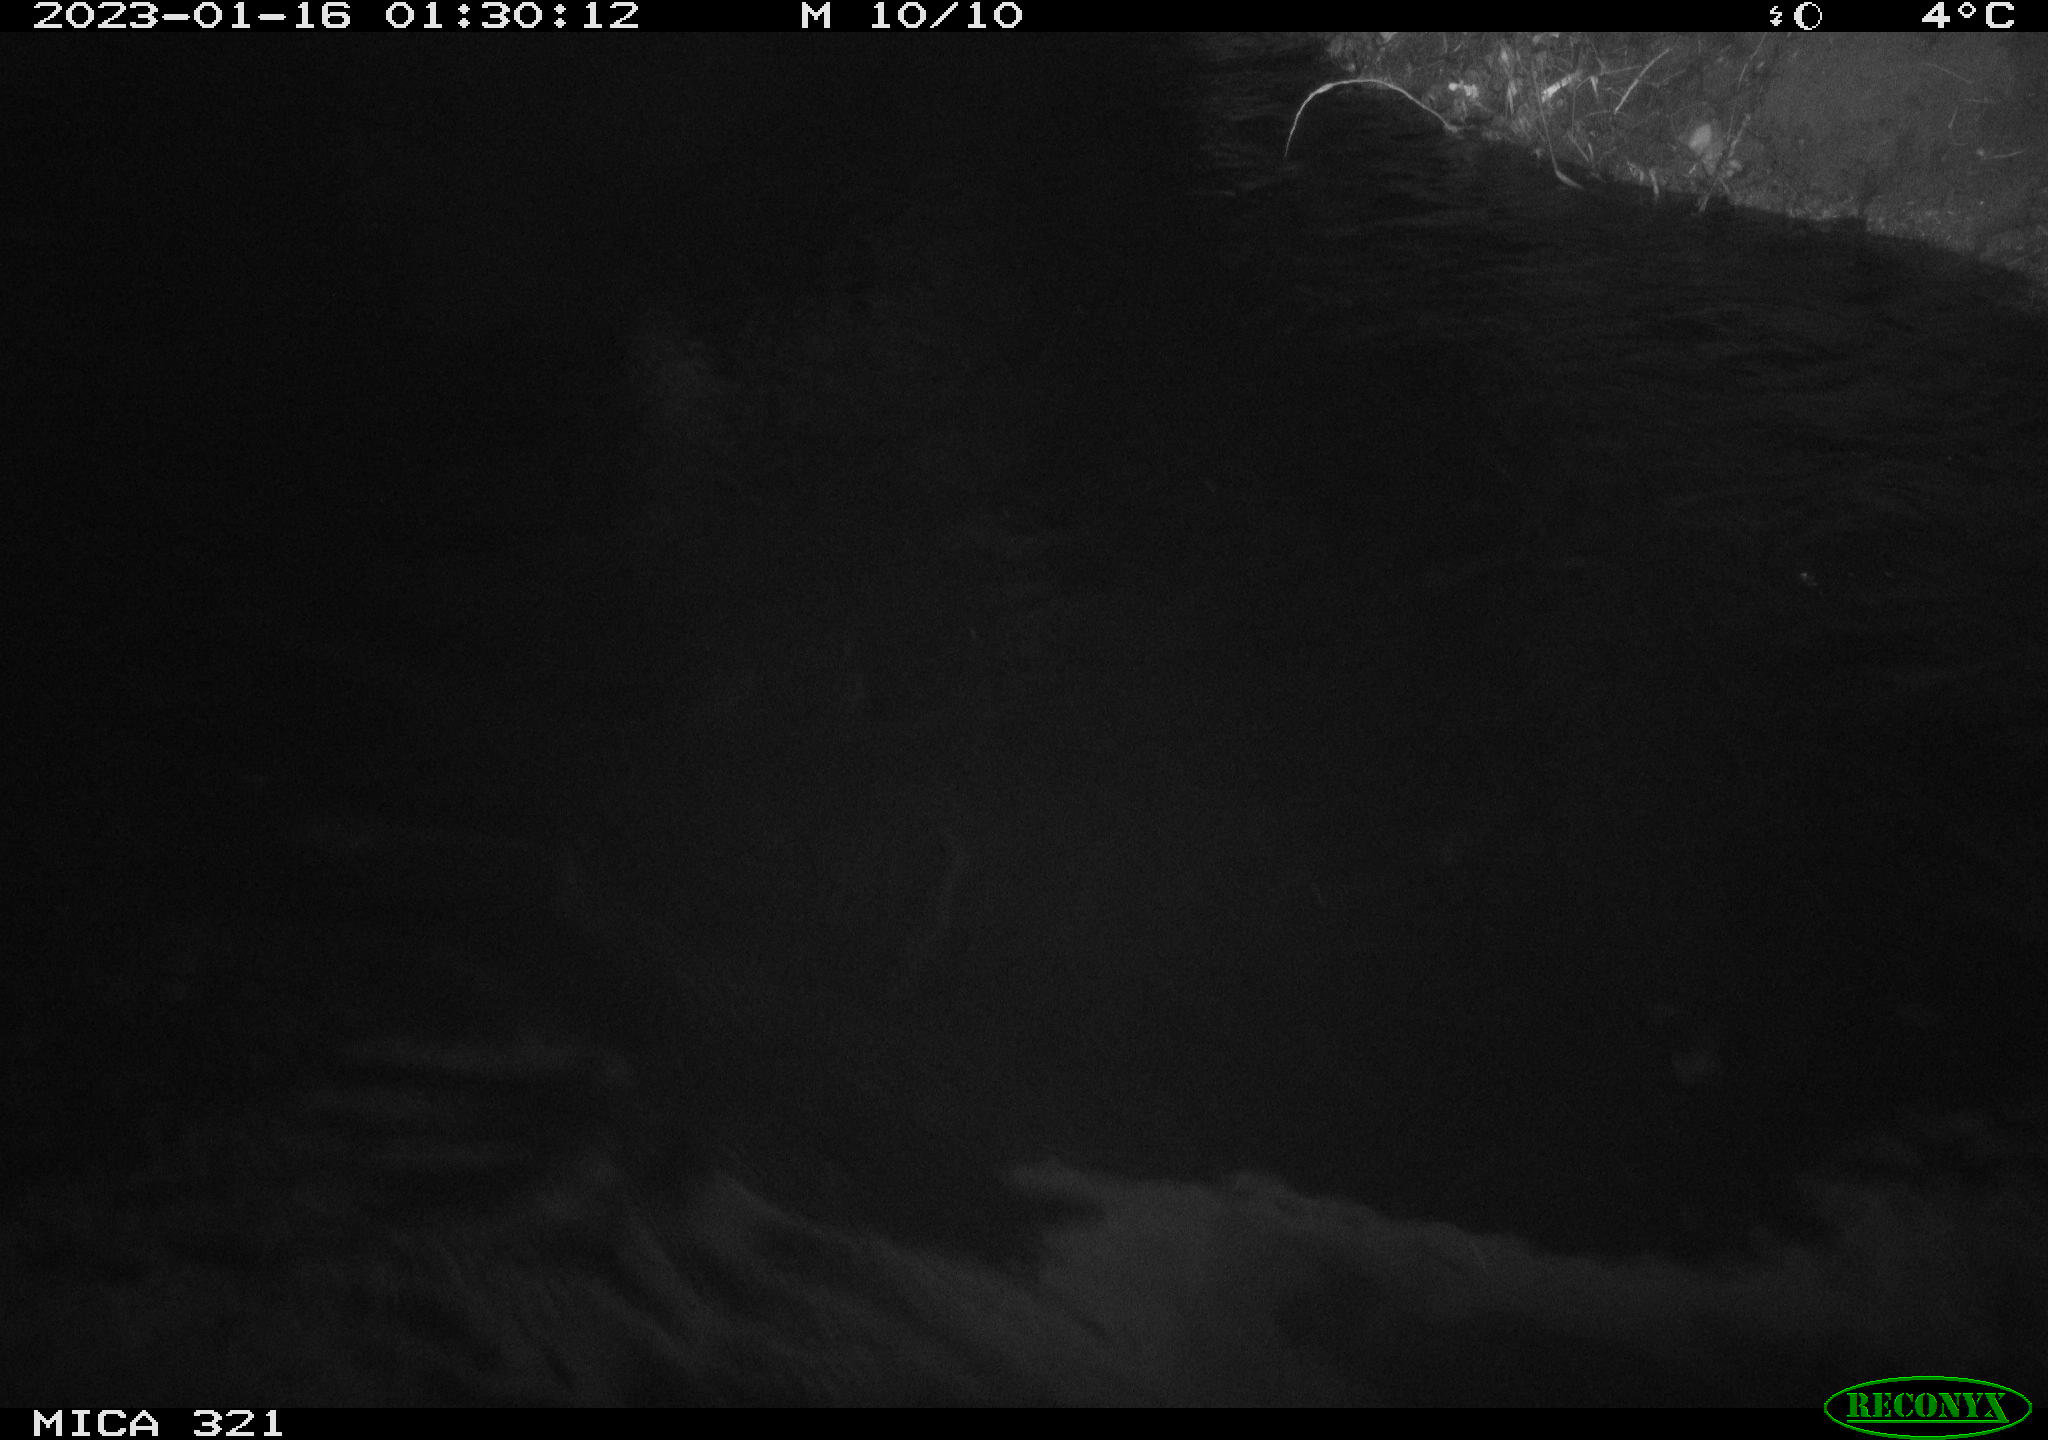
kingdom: Animalia
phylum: Chordata
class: Mammalia
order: Rodentia
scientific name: Rodentia
